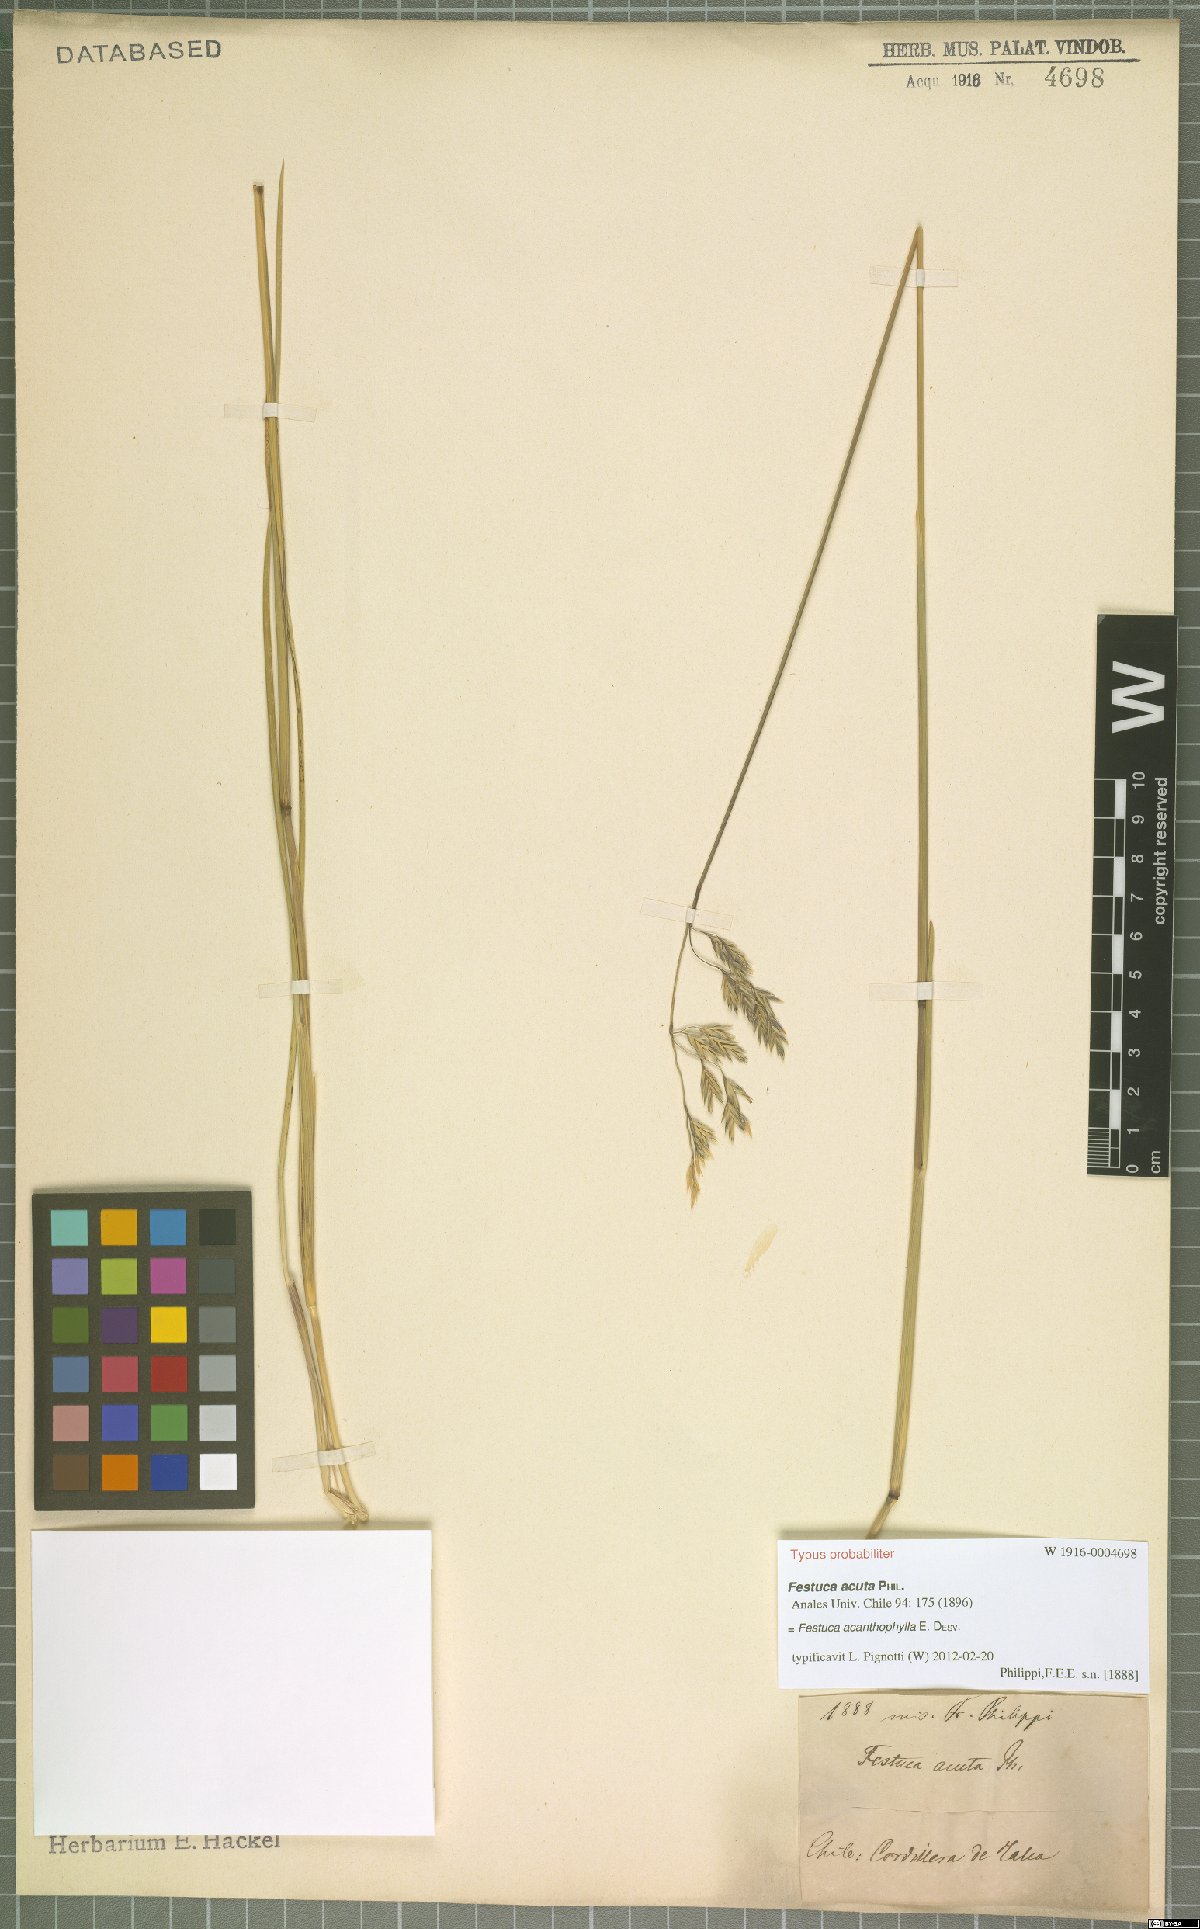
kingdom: Plantae
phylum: Tracheophyta
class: Liliopsida
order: Poales
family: Poaceae
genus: Festuca
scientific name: Festuca acanthophylla
